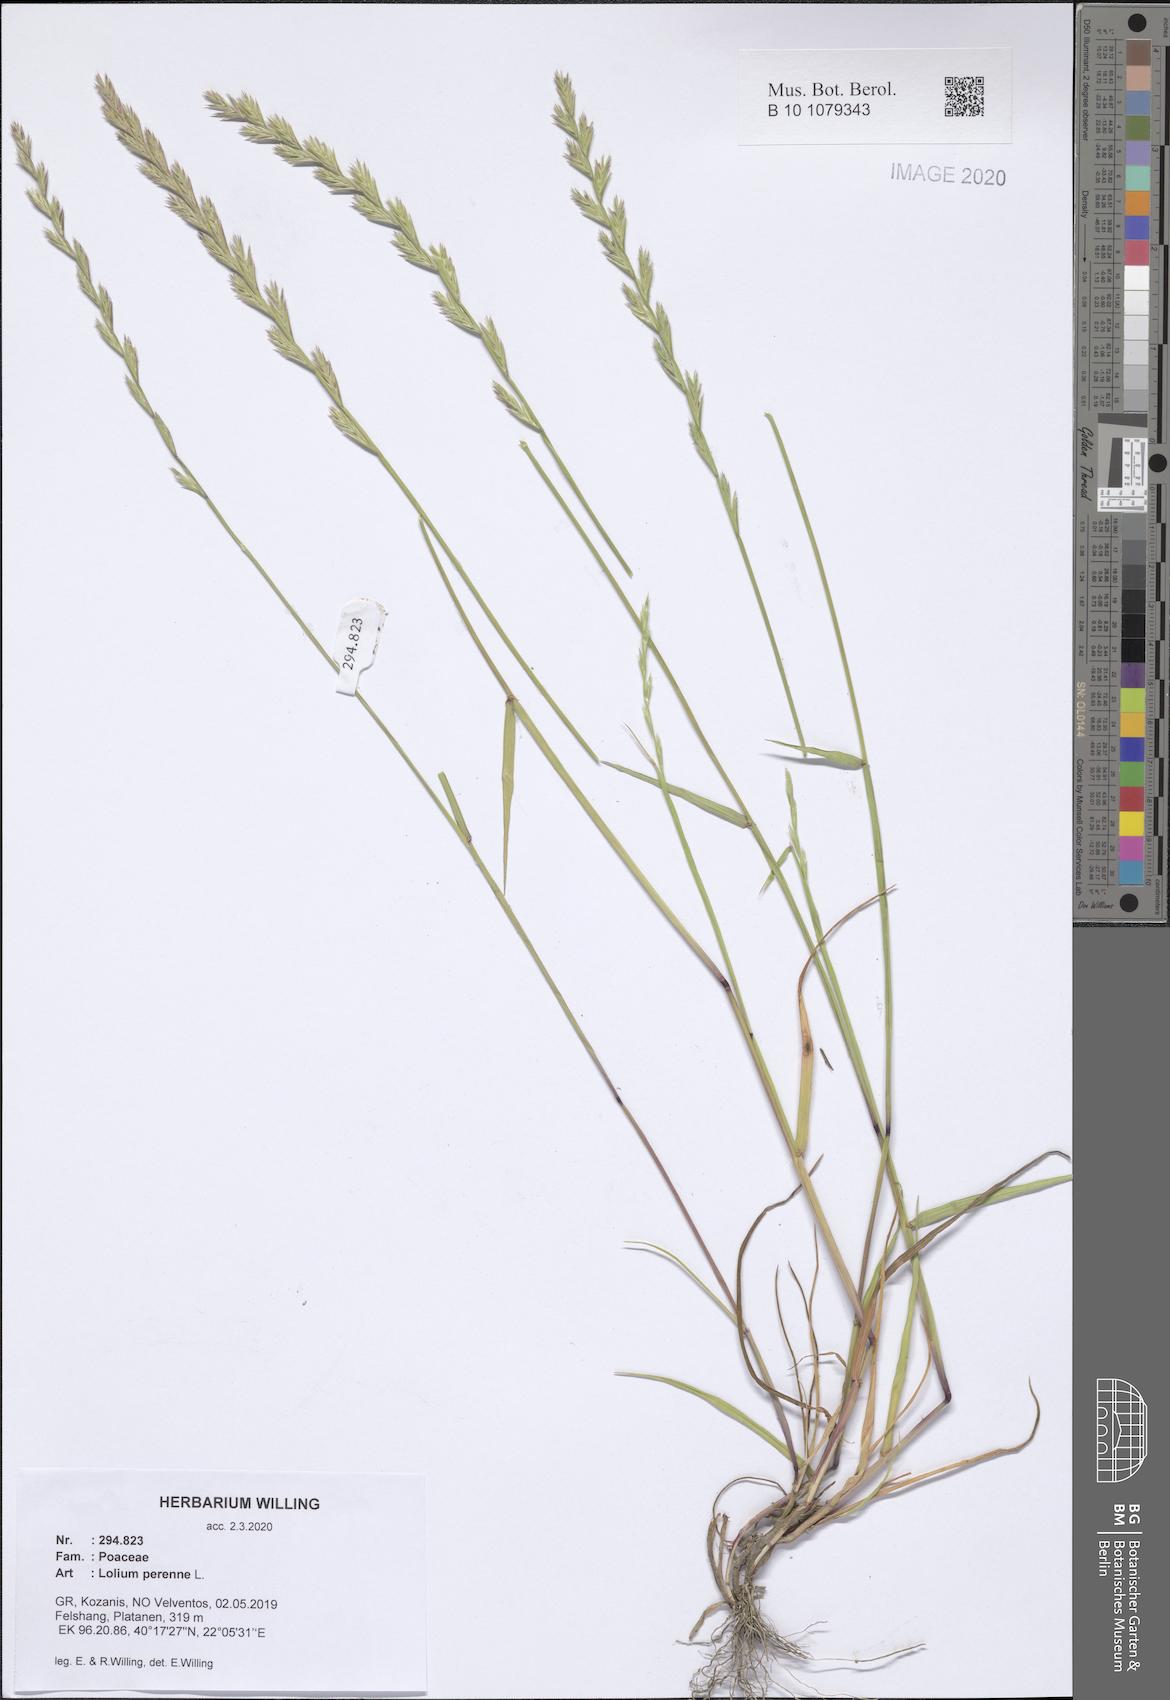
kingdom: Plantae
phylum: Tracheophyta
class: Liliopsida
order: Poales
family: Poaceae
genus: Lolium
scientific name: Lolium perenne
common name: Perennial ryegrass
